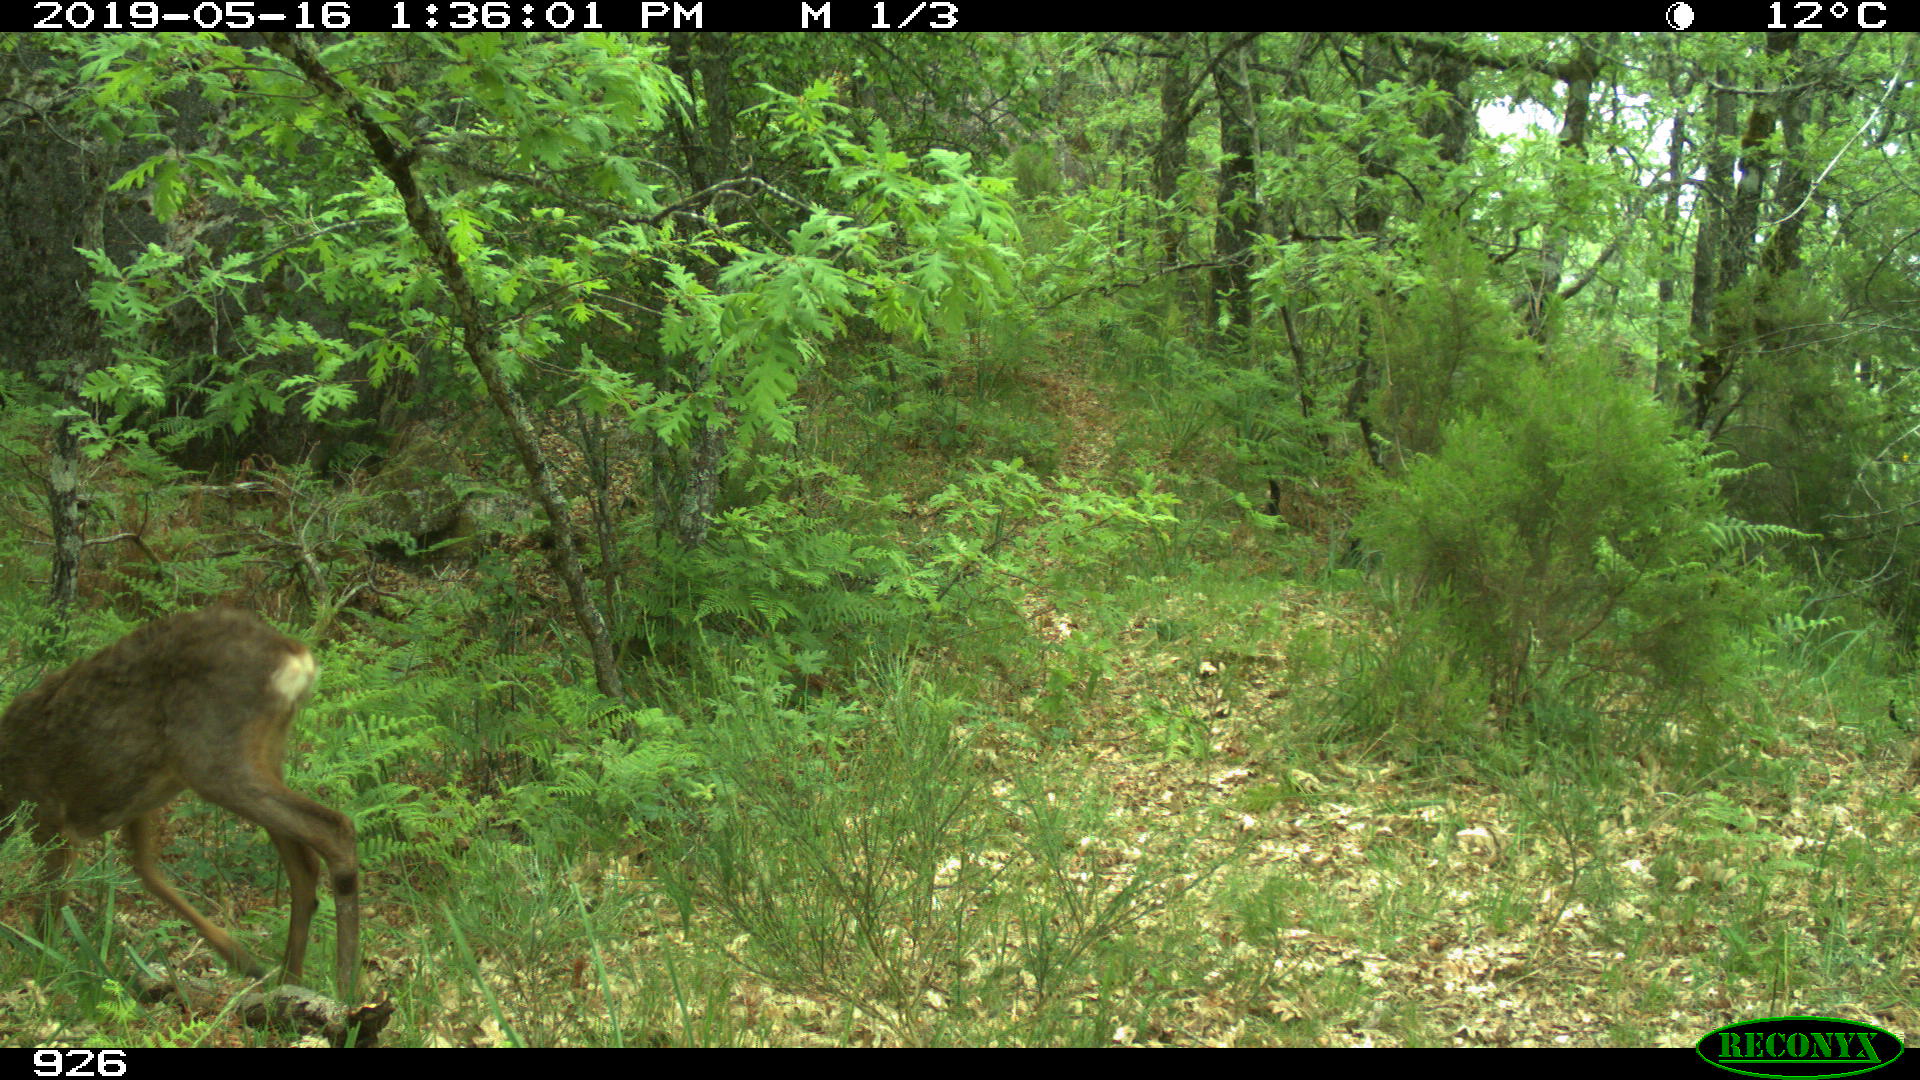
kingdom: Animalia
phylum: Chordata
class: Mammalia
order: Artiodactyla
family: Cervidae
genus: Capreolus
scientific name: Capreolus capreolus
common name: Western roe deer
